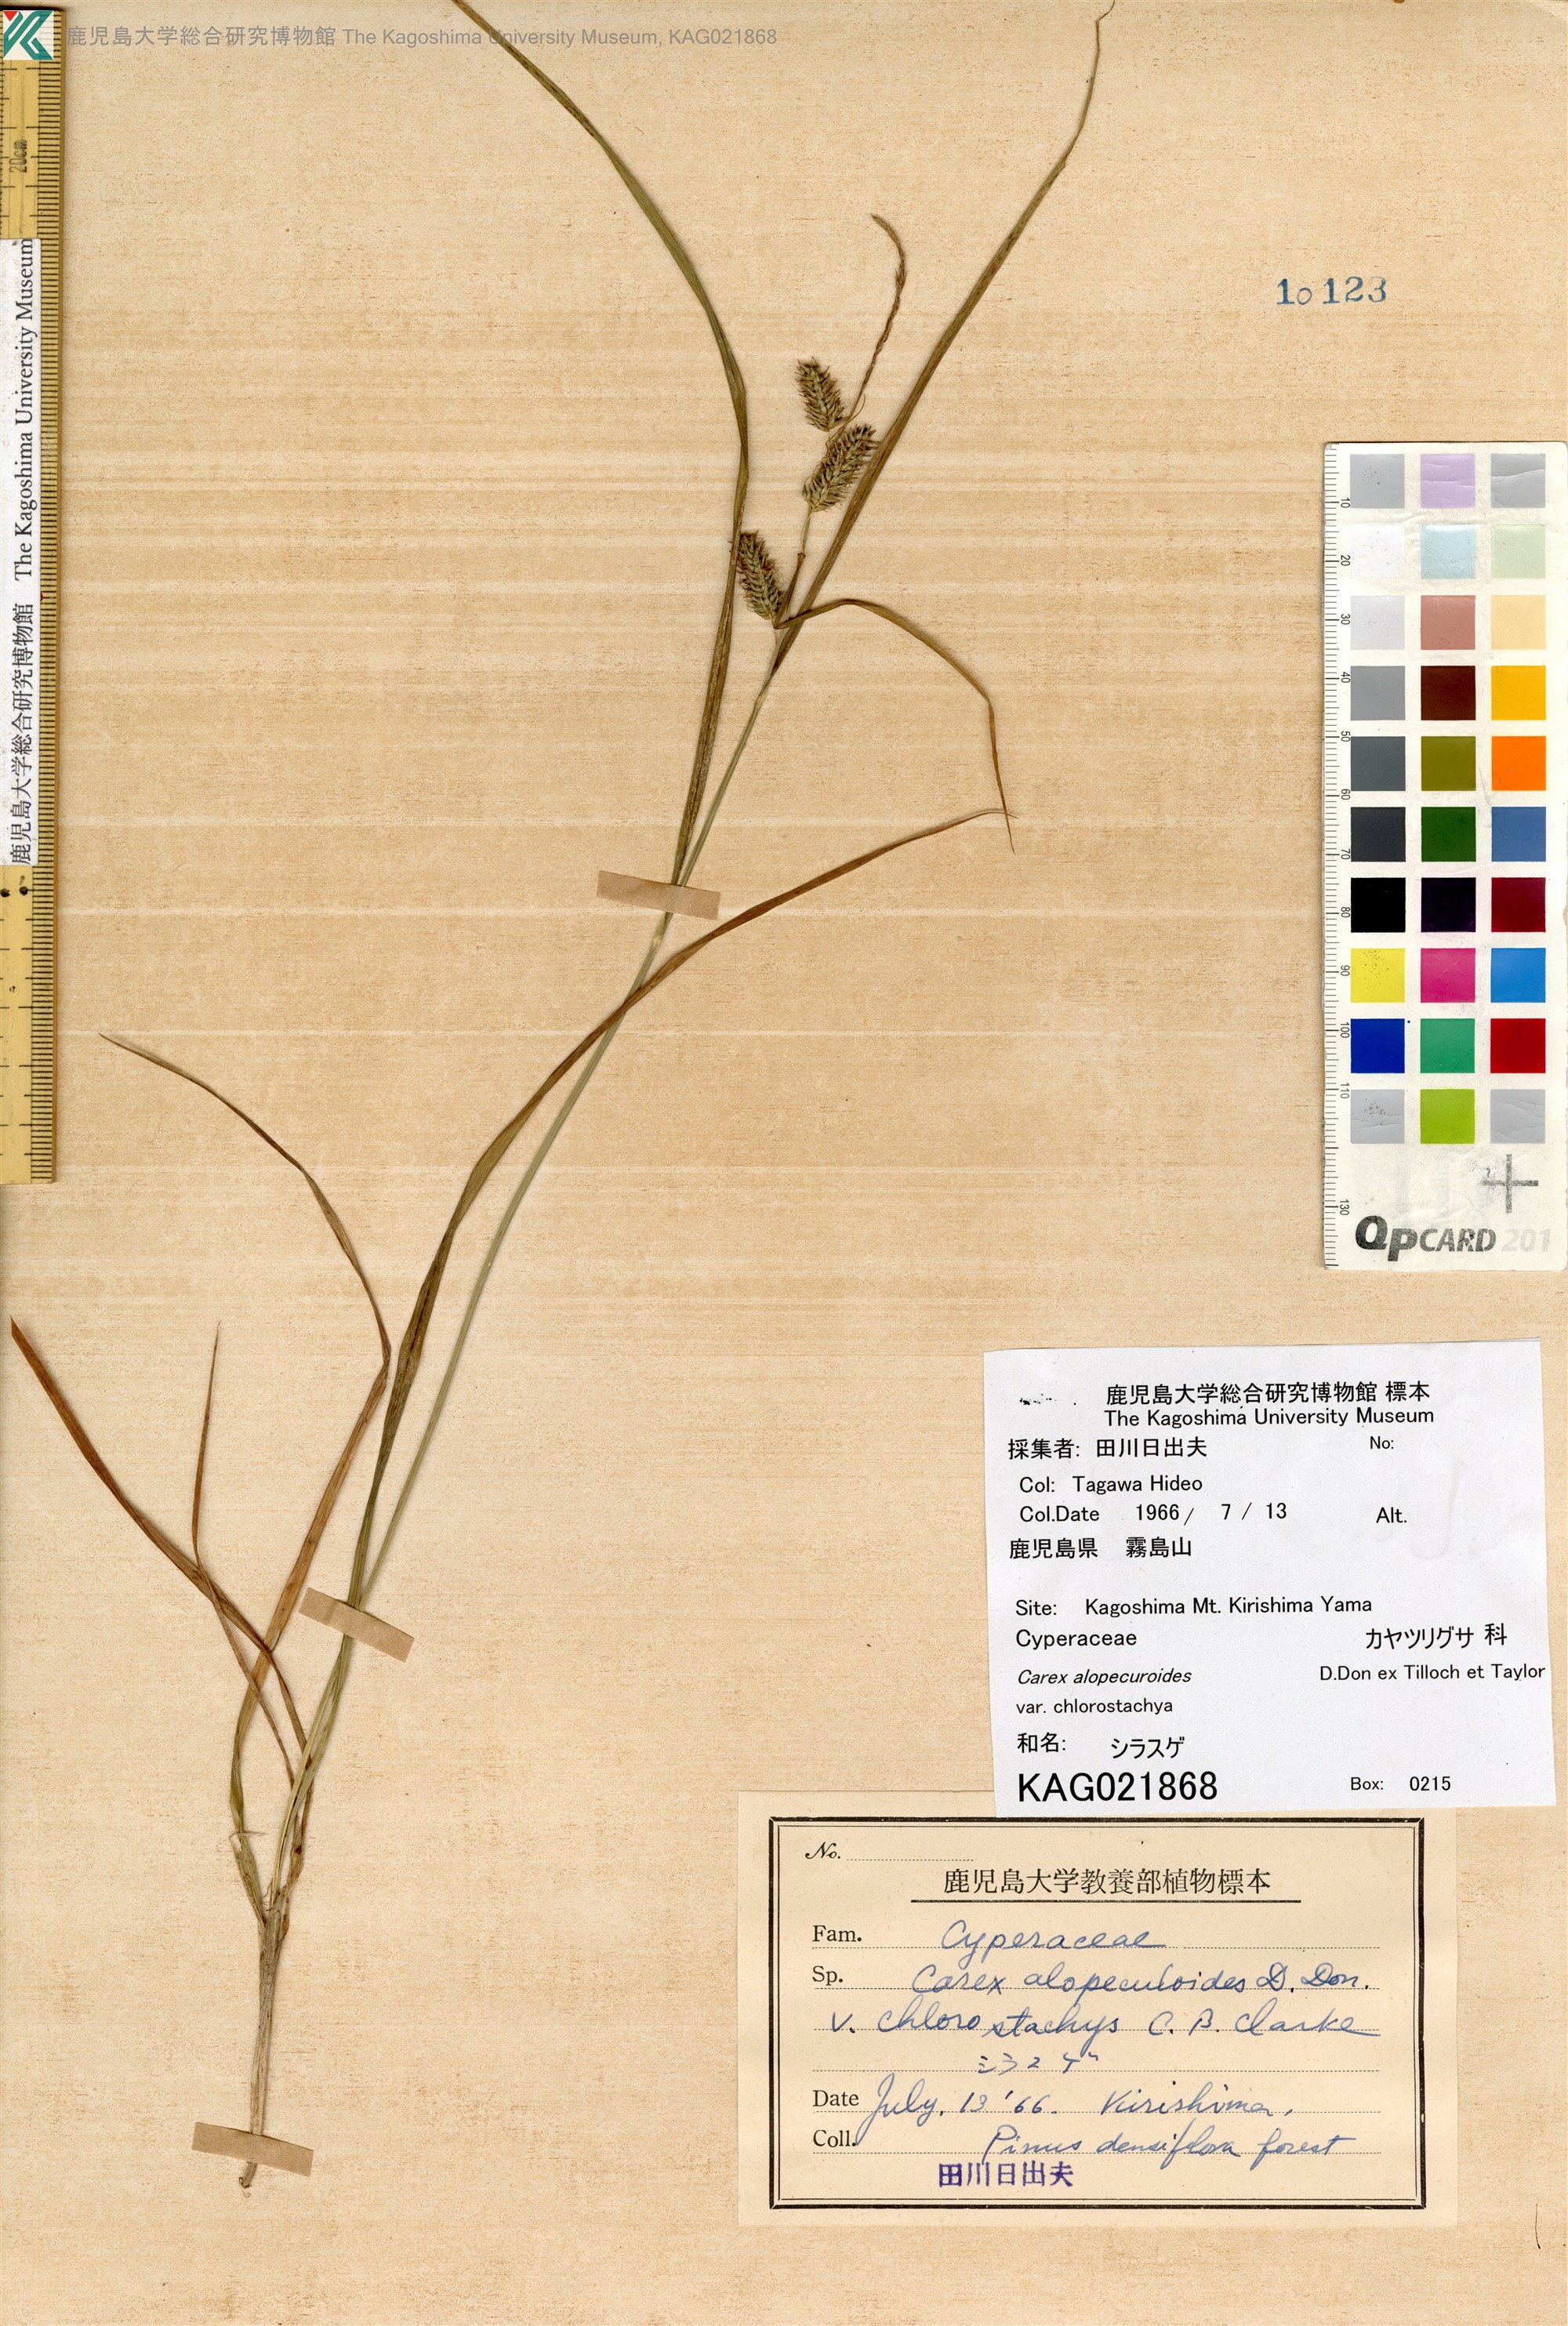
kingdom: Plantae
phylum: Tracheophyta
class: Liliopsida
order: Poales
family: Cyperaceae
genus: Carex
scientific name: Carex alopecuroides
